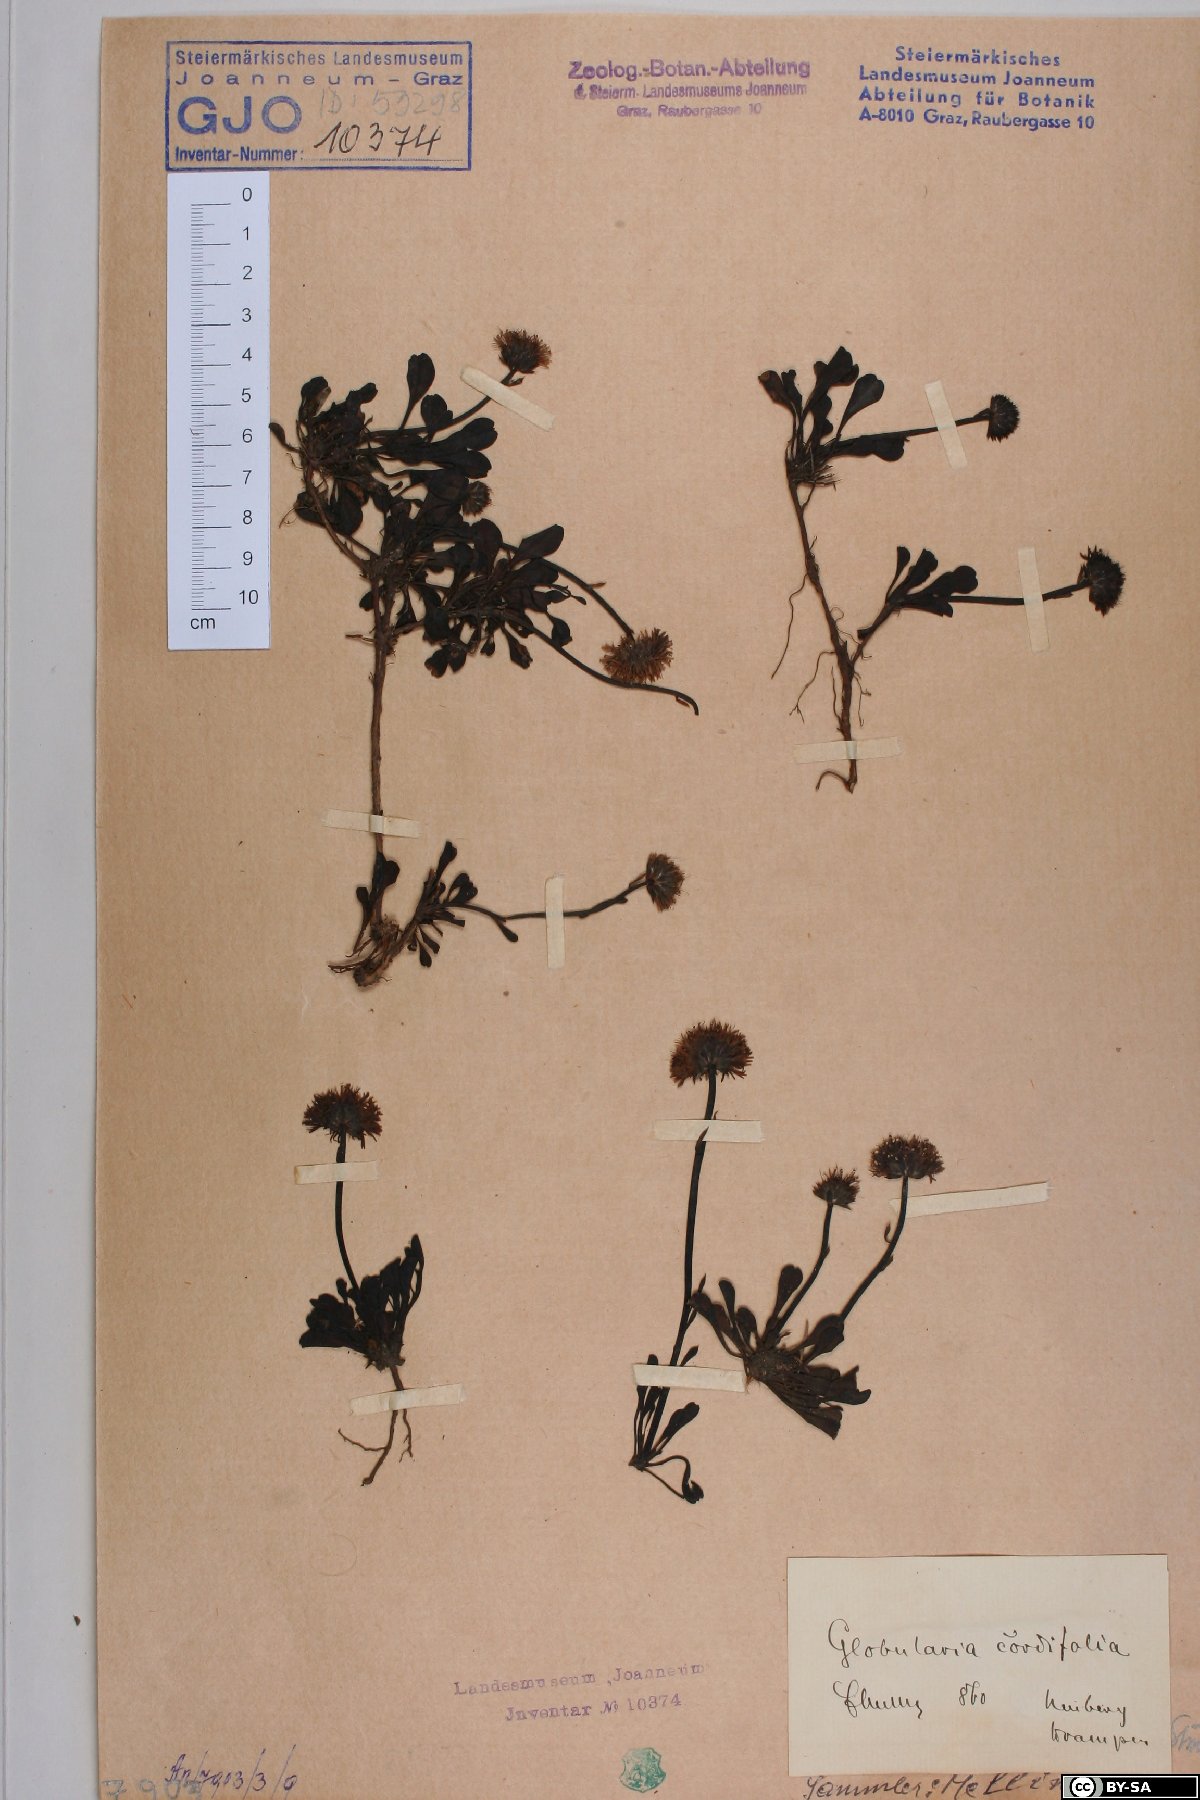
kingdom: Plantae
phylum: Tracheophyta
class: Magnoliopsida
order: Lamiales
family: Plantaginaceae
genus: Globularia
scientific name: Globularia cordifolia
